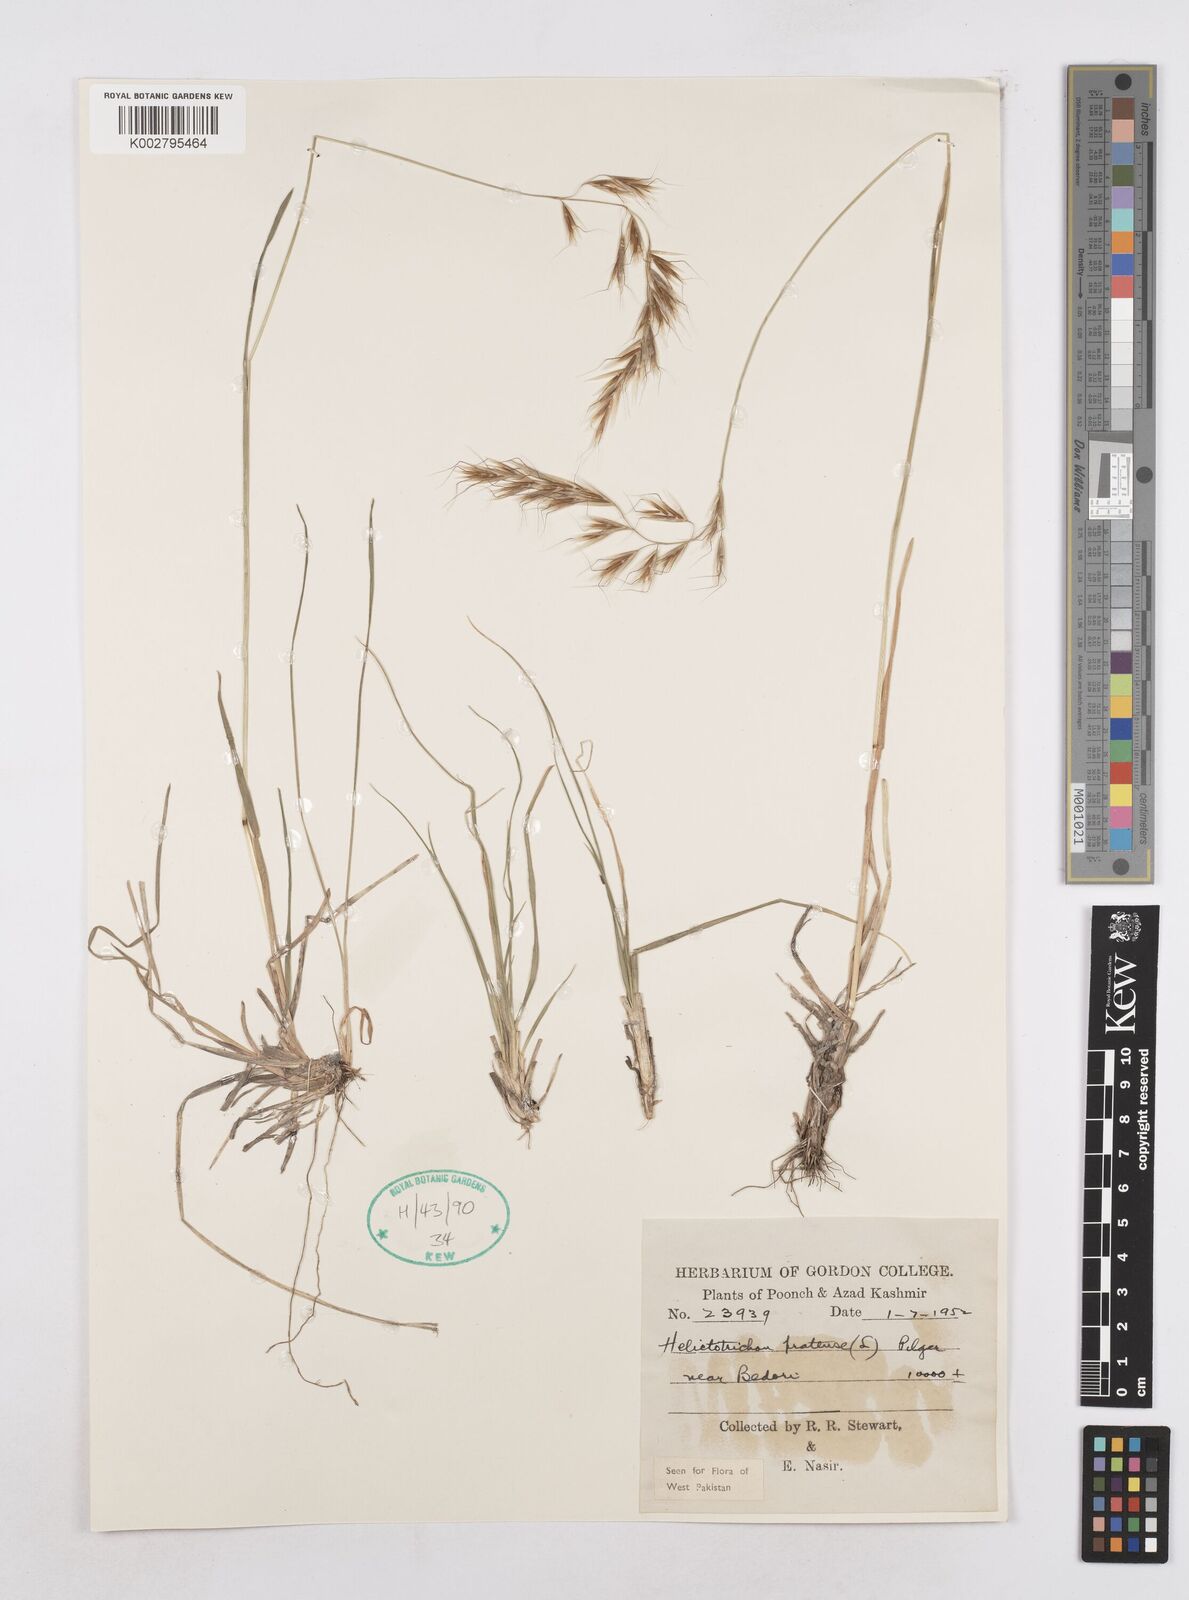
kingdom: Plantae
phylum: Tracheophyta
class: Liliopsida
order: Poales
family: Poaceae
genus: Helictochloa
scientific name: Helictochloa pratensis
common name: Meadow oat grass
